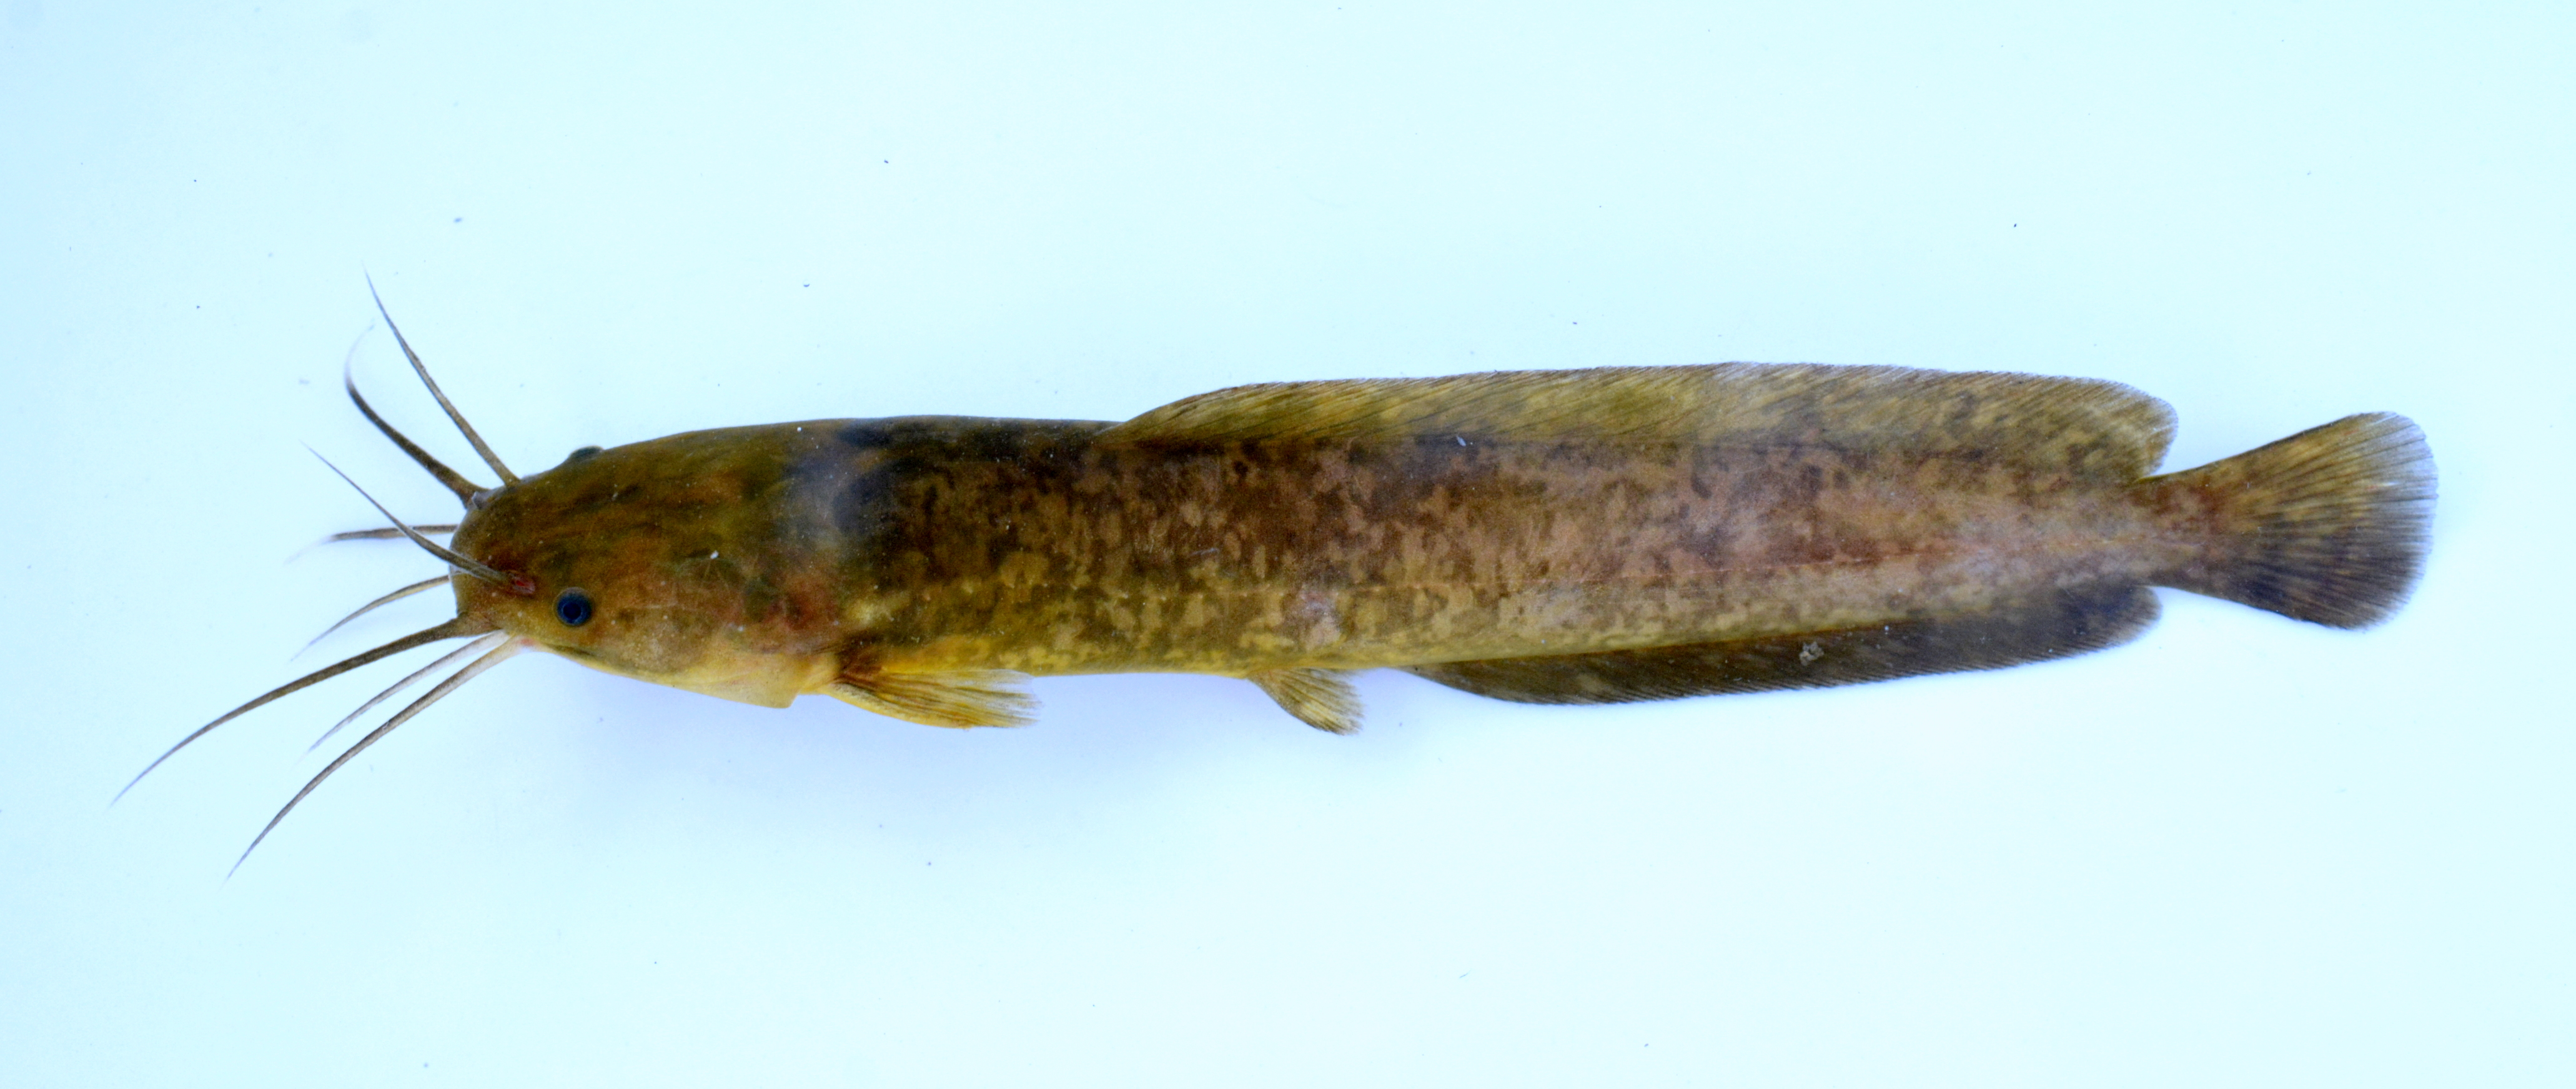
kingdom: Animalia
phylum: Chordata
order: Siluriformes
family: Clariidae
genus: Clarias
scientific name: Clarias liocephalus
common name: Smooth-head catfish
